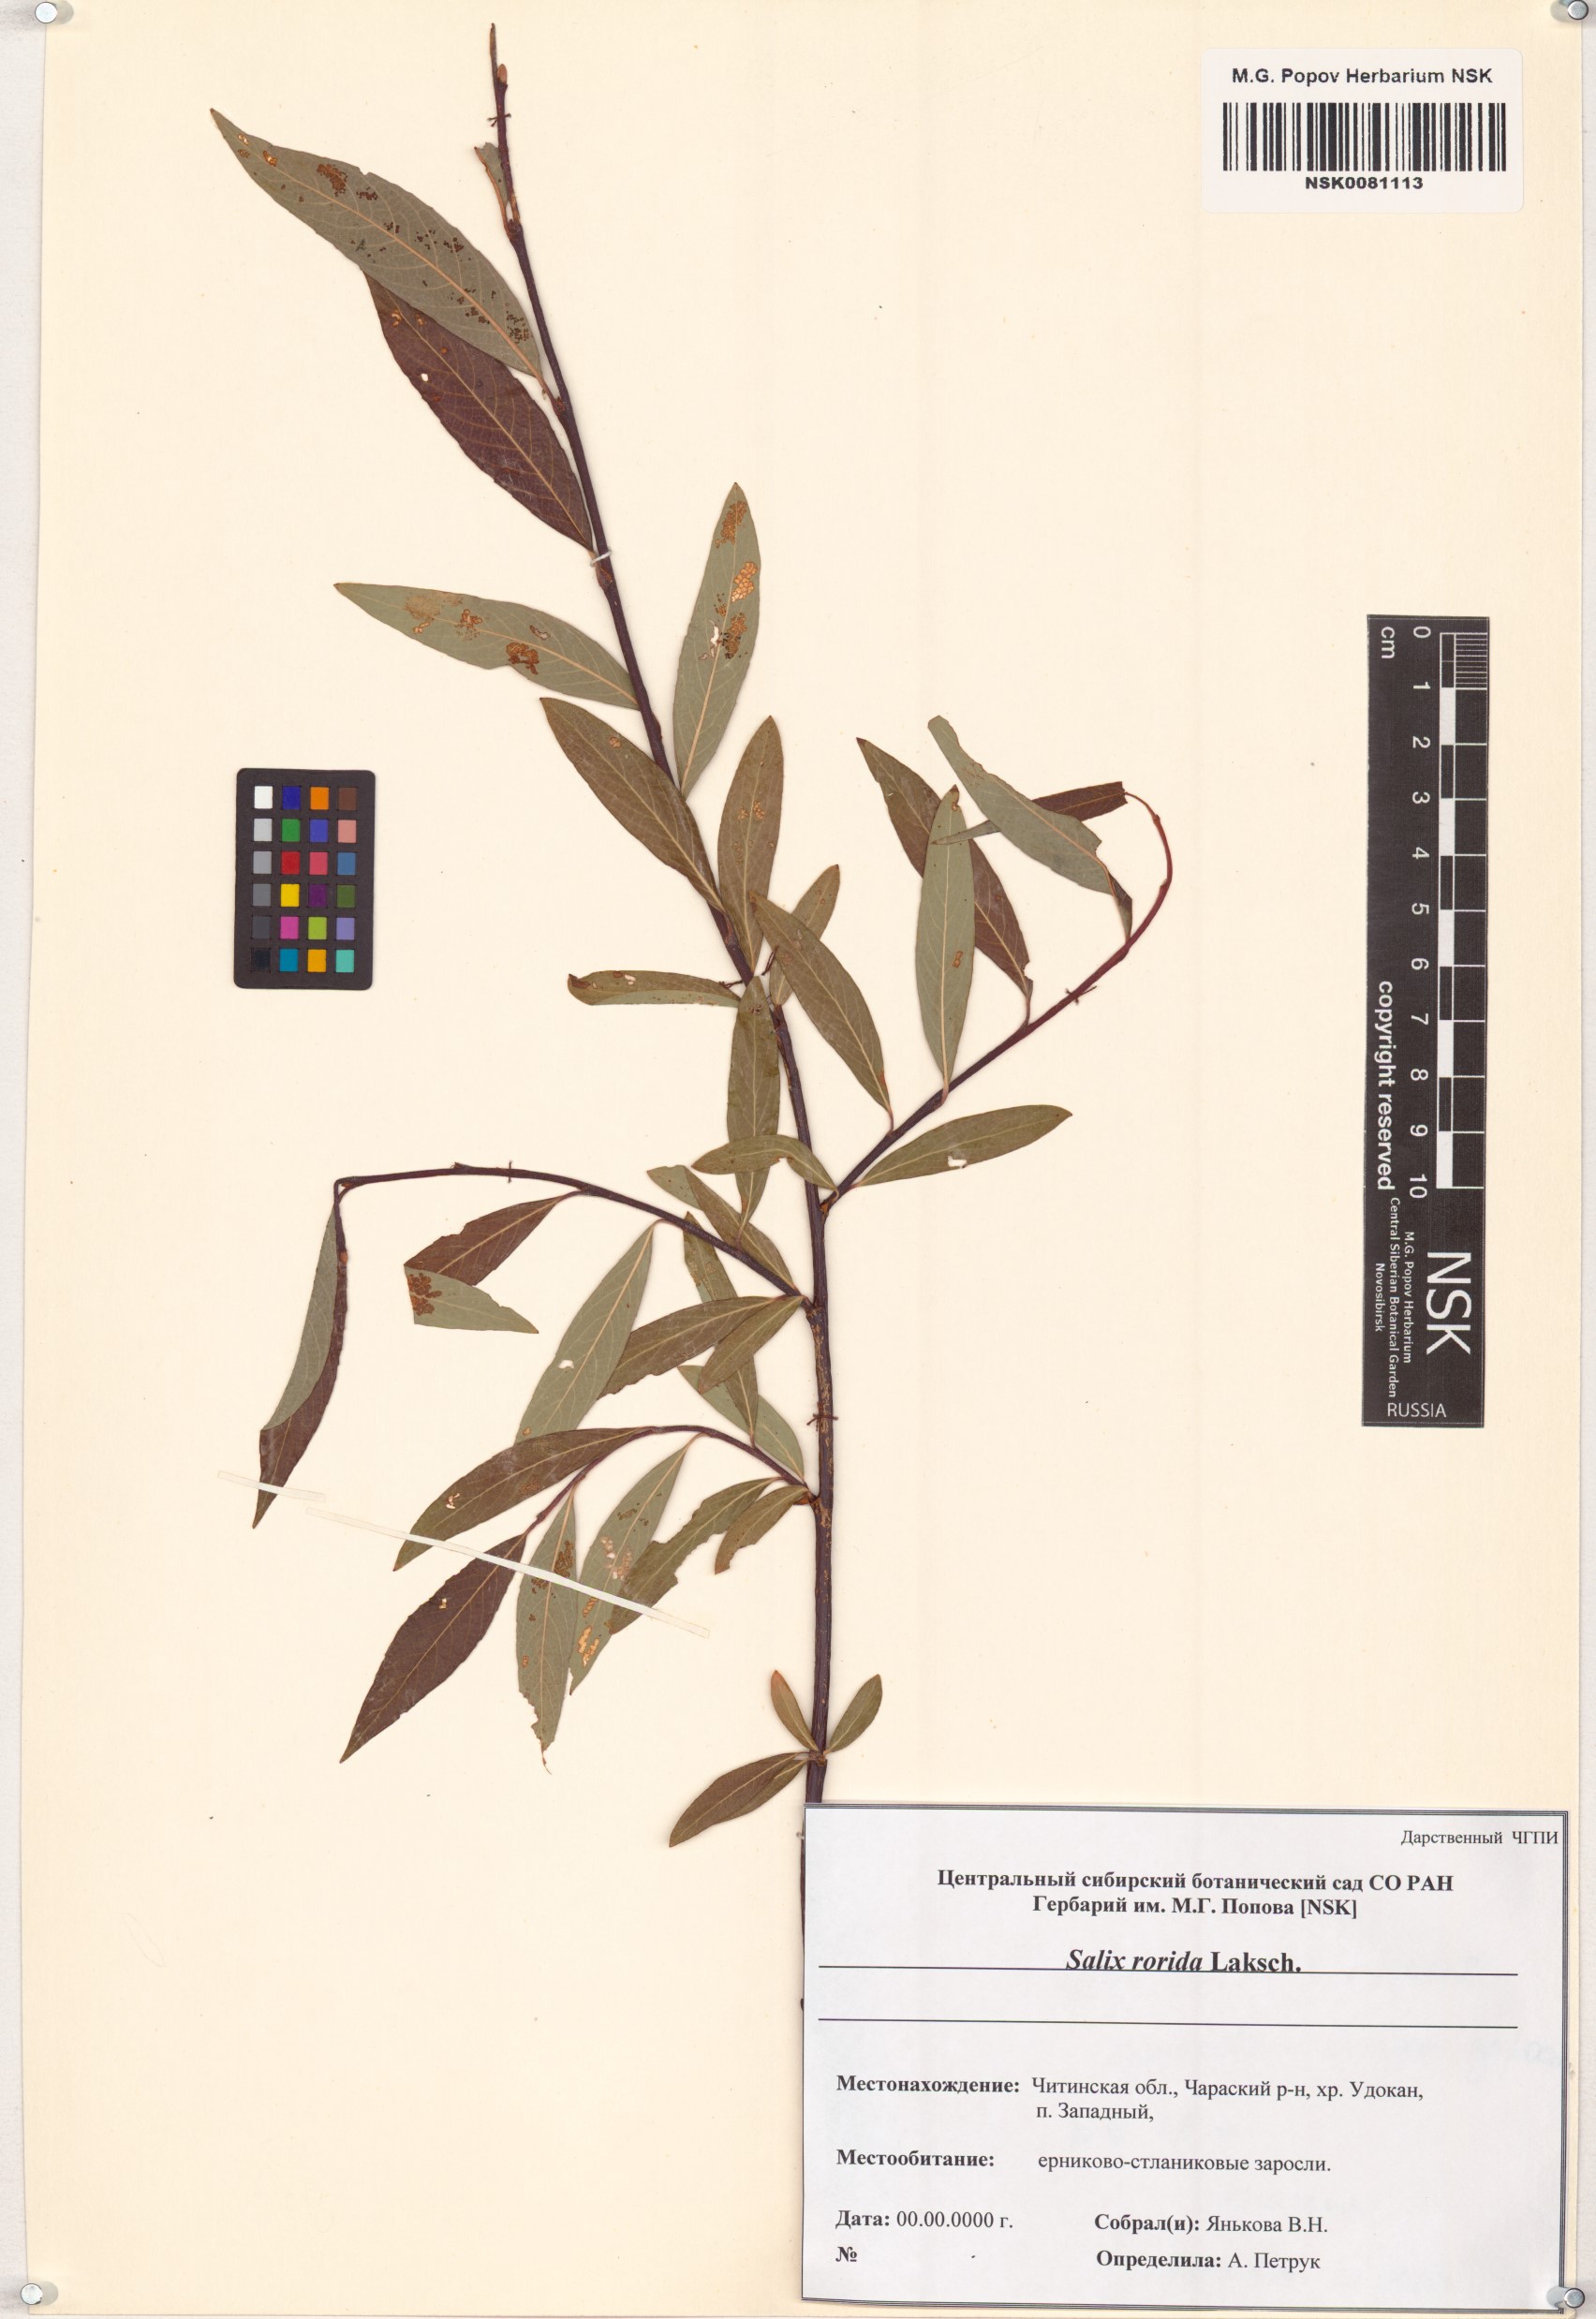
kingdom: Plantae
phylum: Tracheophyta
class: Magnoliopsida
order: Malpighiales
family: Salicaceae
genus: Salix
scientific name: Salix rorida
